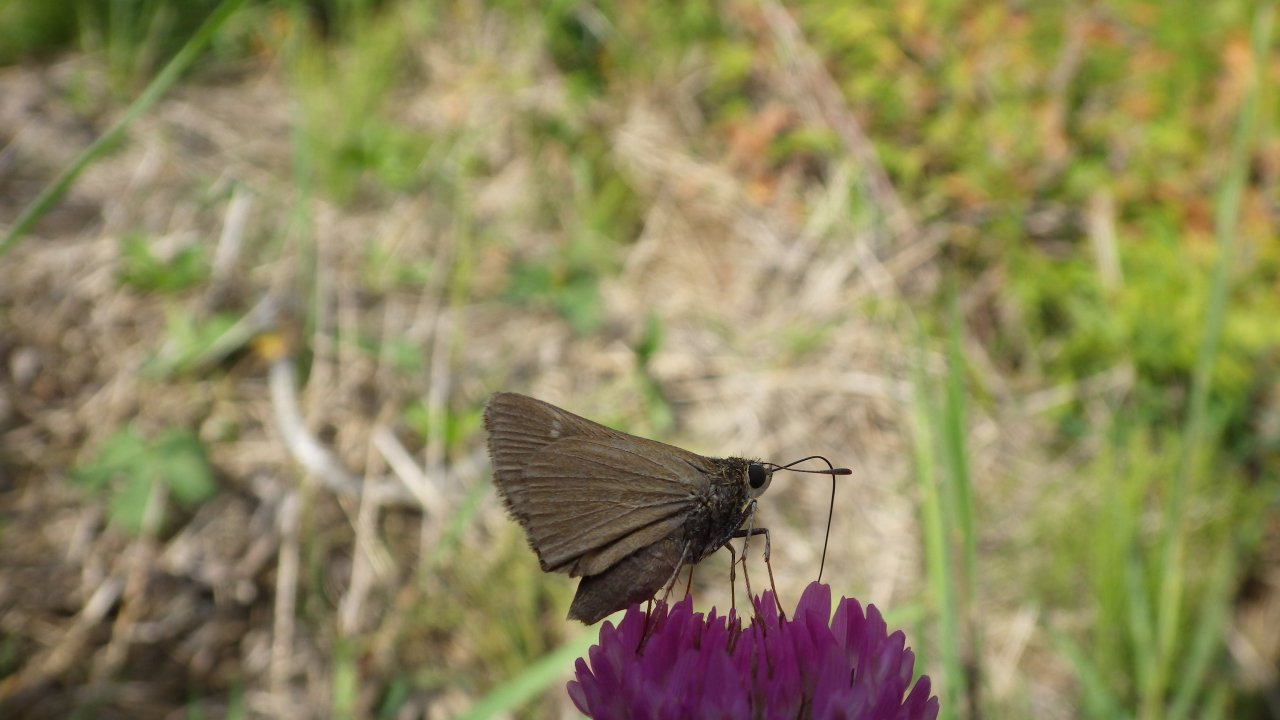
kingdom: Animalia
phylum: Arthropoda
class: Insecta
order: Lepidoptera
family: Hesperiidae
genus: Polites
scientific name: Polites
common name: Crossline Skipper
